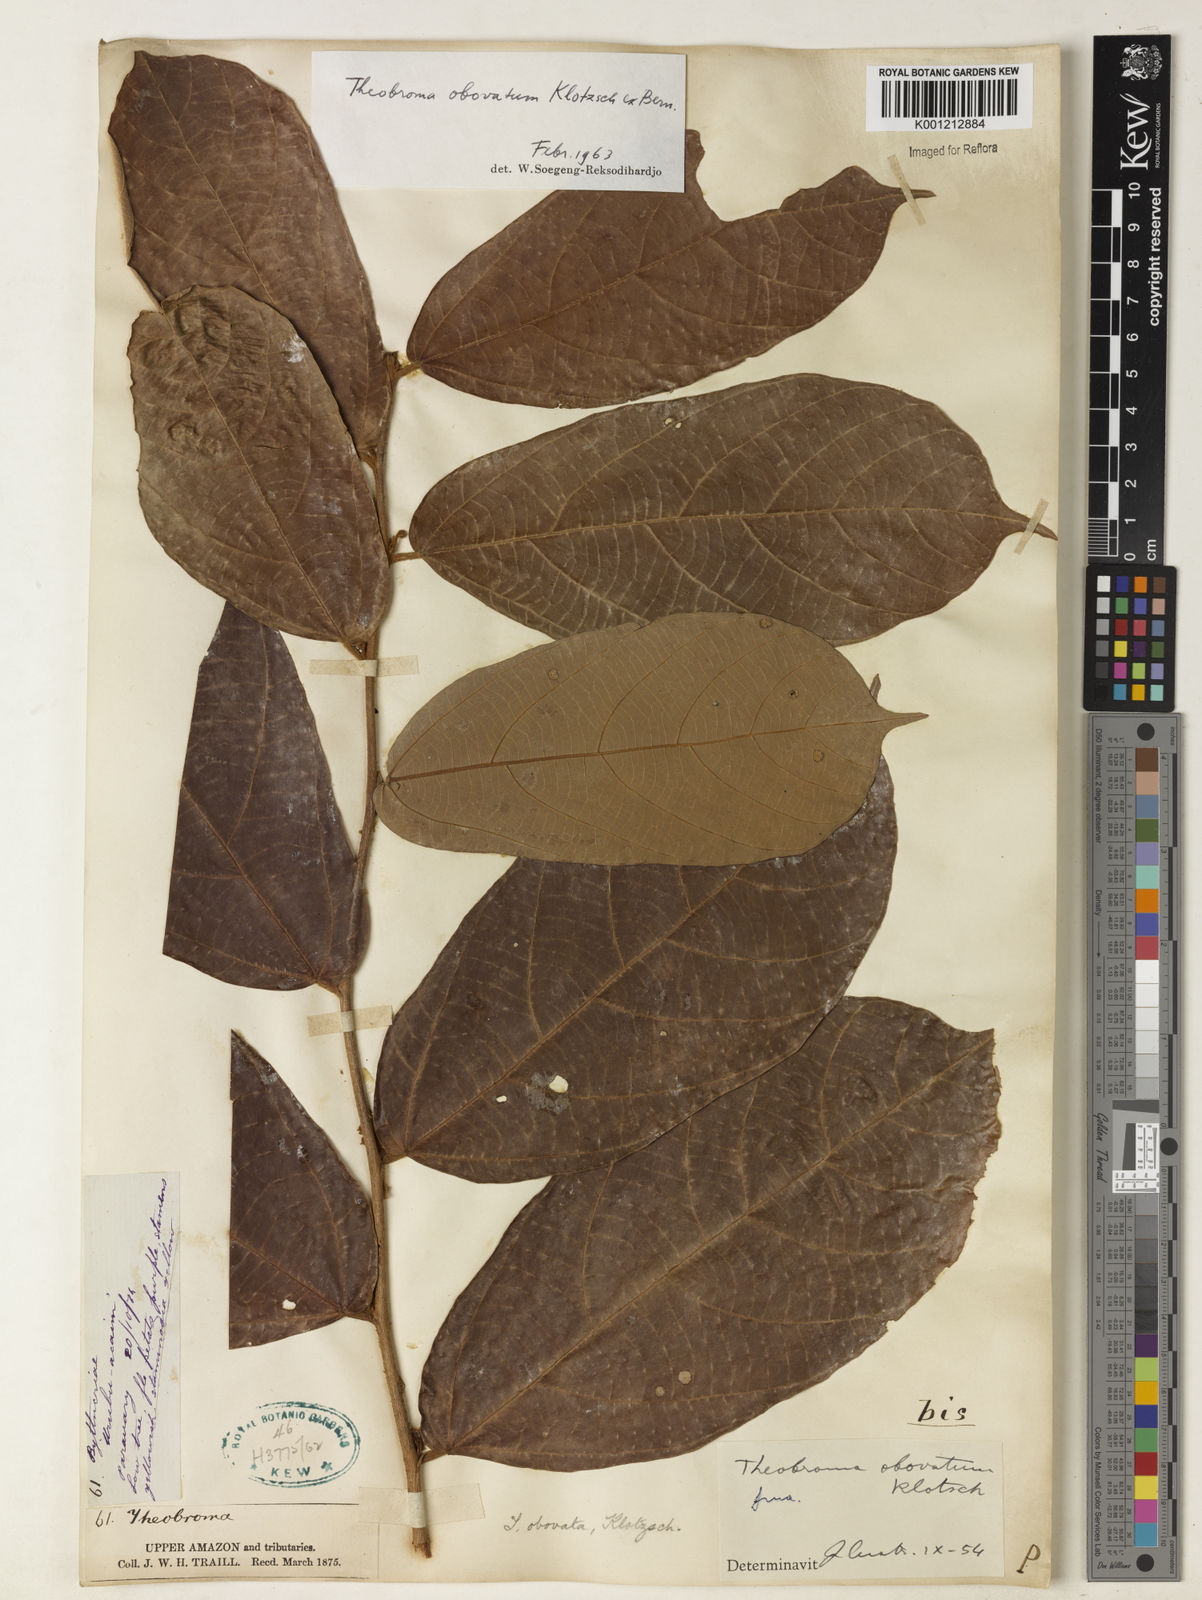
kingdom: Plantae
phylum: Tracheophyta
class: Magnoliopsida
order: Malvales
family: Malvaceae
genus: Theobroma
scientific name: Theobroma obovatum
